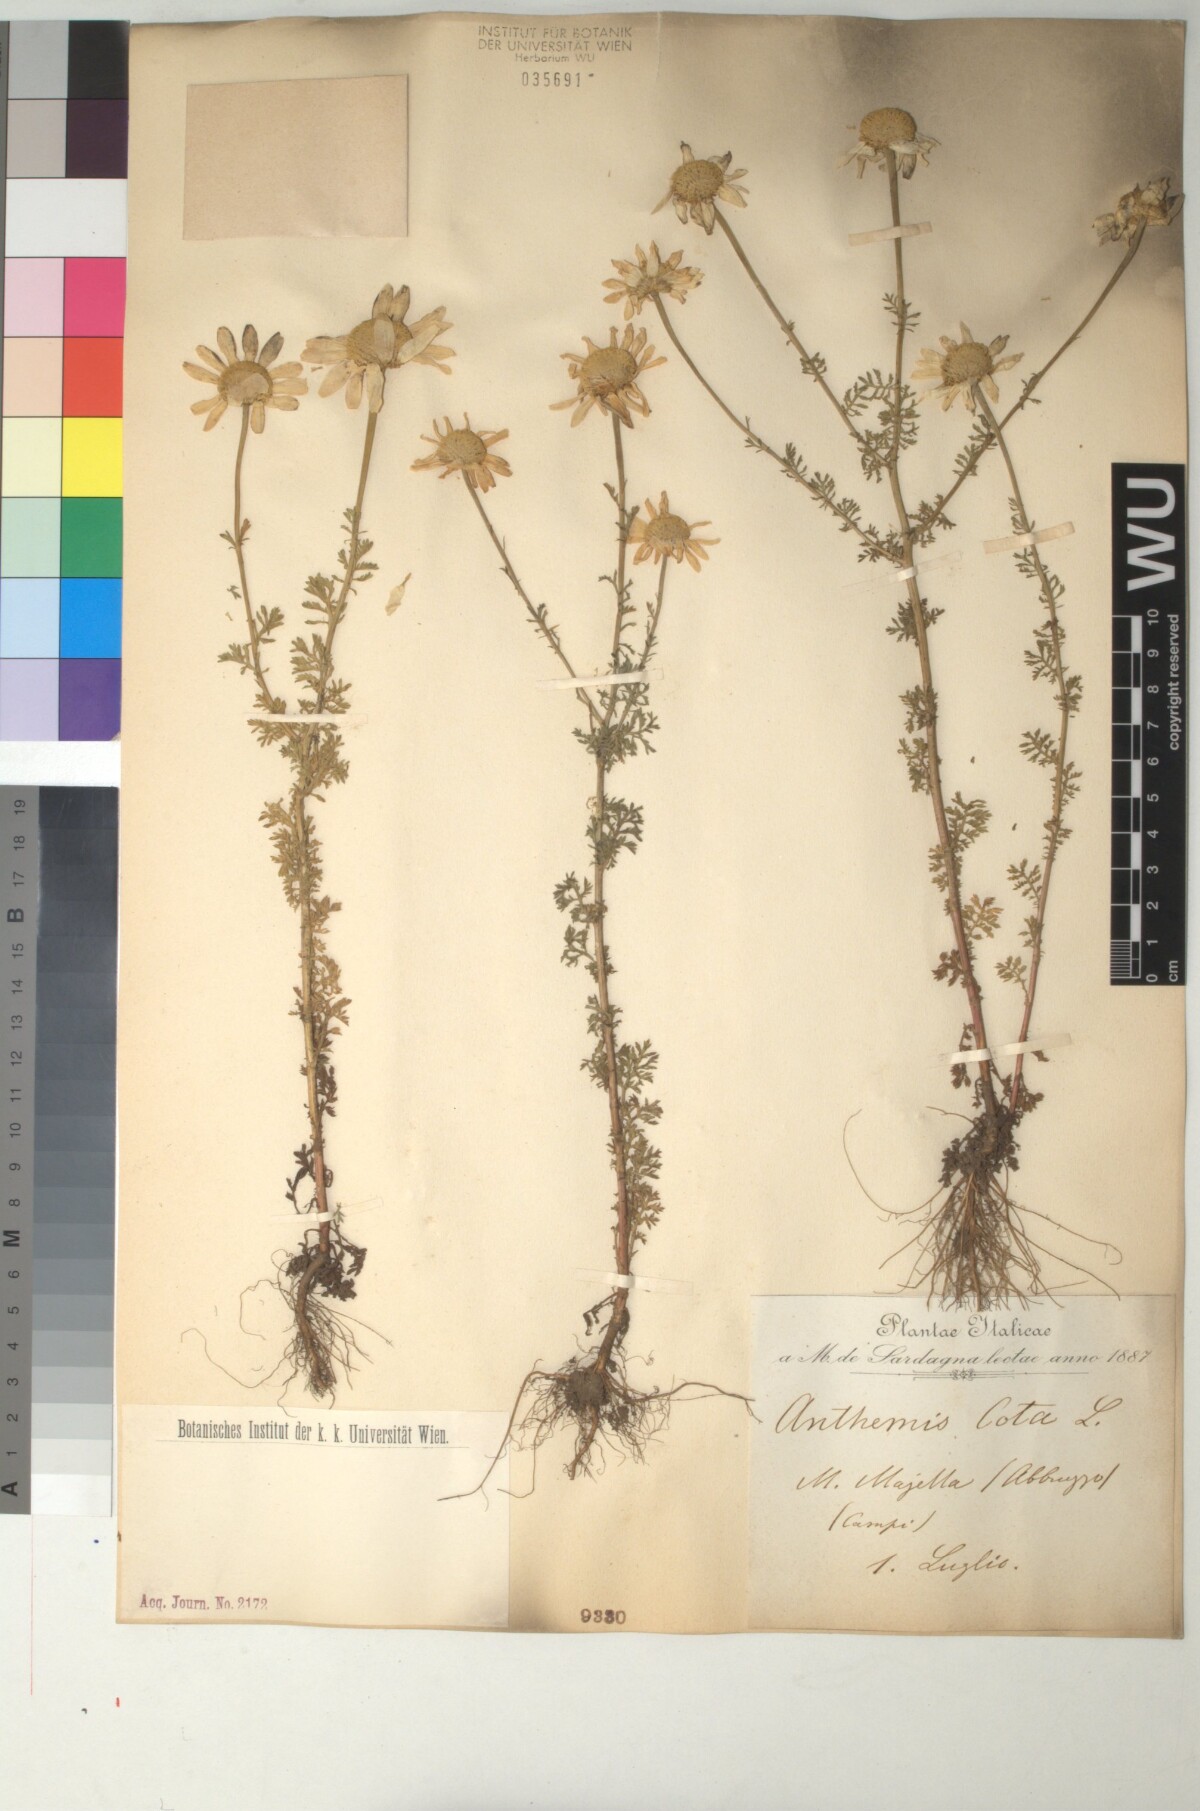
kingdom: Plantae
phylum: Tracheophyta
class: Magnoliopsida
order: Asterales
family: Asteraceae
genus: Cota
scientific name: Cota altissima
